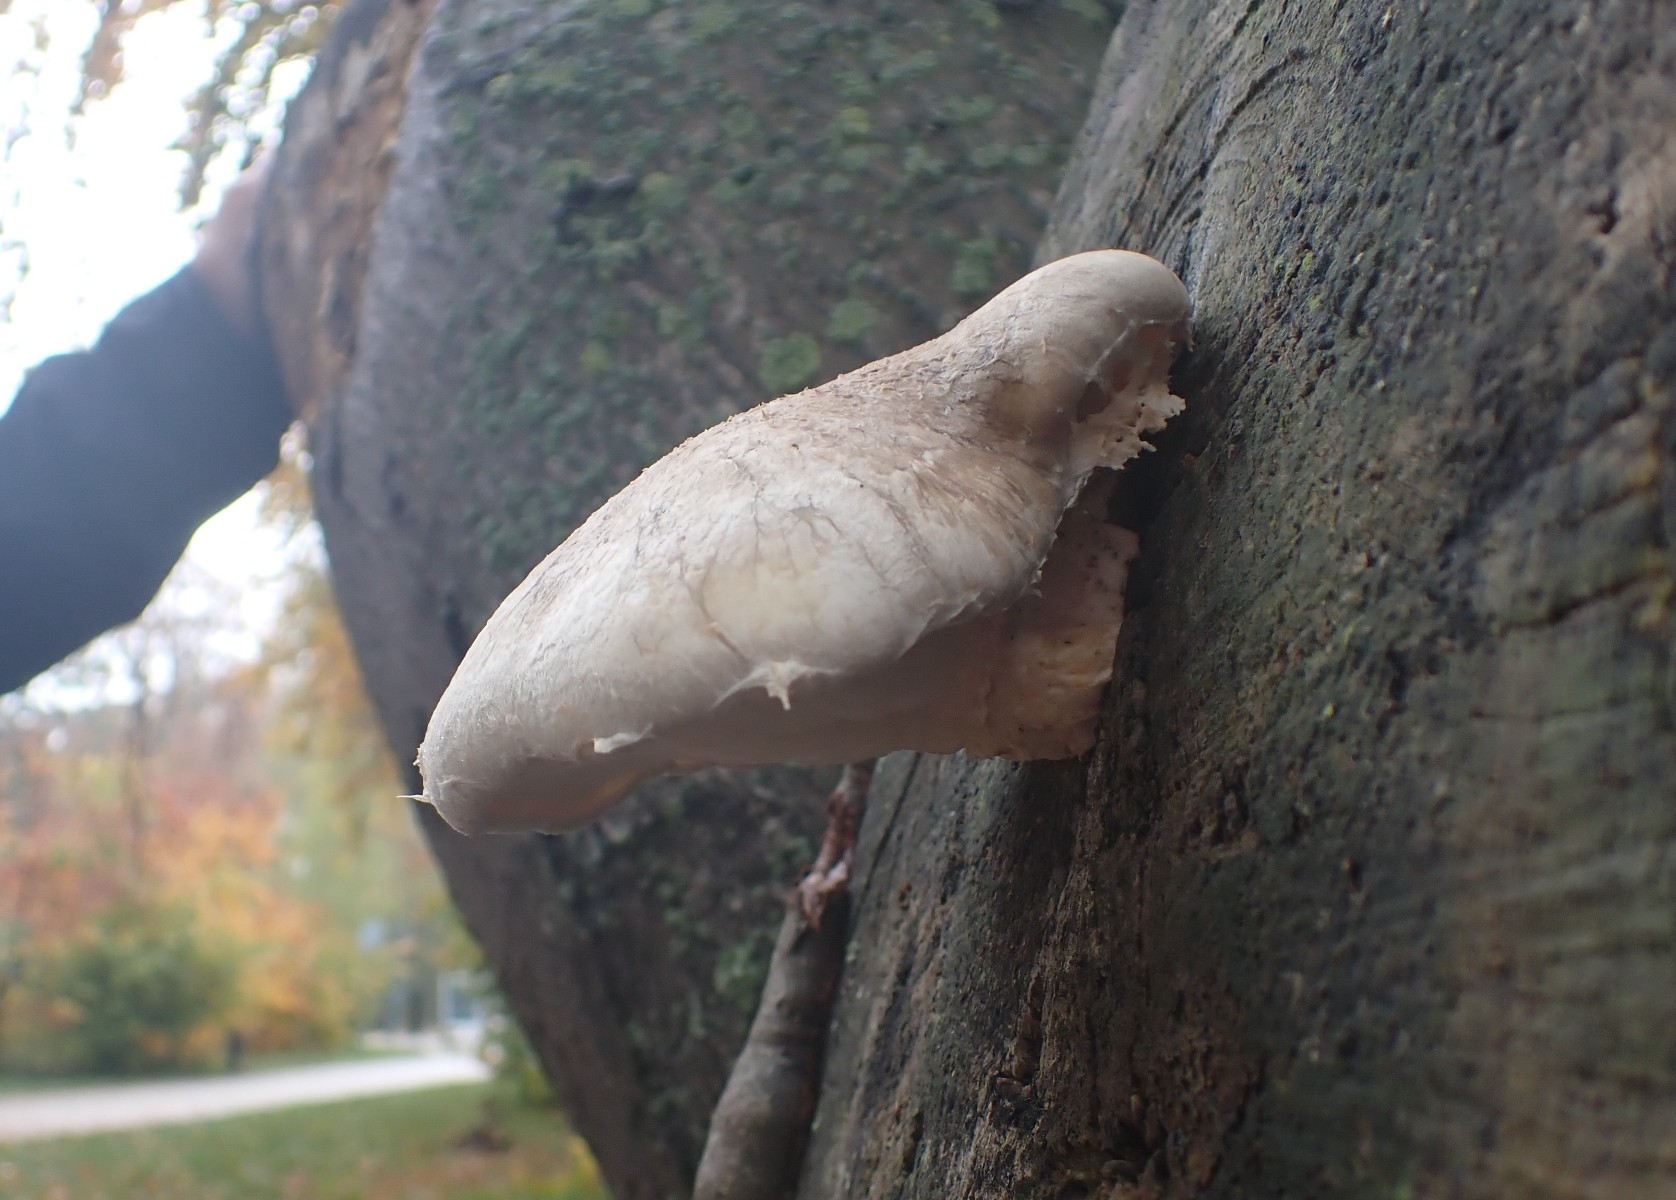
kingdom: Fungi
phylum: Basidiomycota
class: Agaricomycetes
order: Agaricales
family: Pleurotaceae
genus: Pleurotus
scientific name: Pleurotus dryinus
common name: korkagtig østershat
